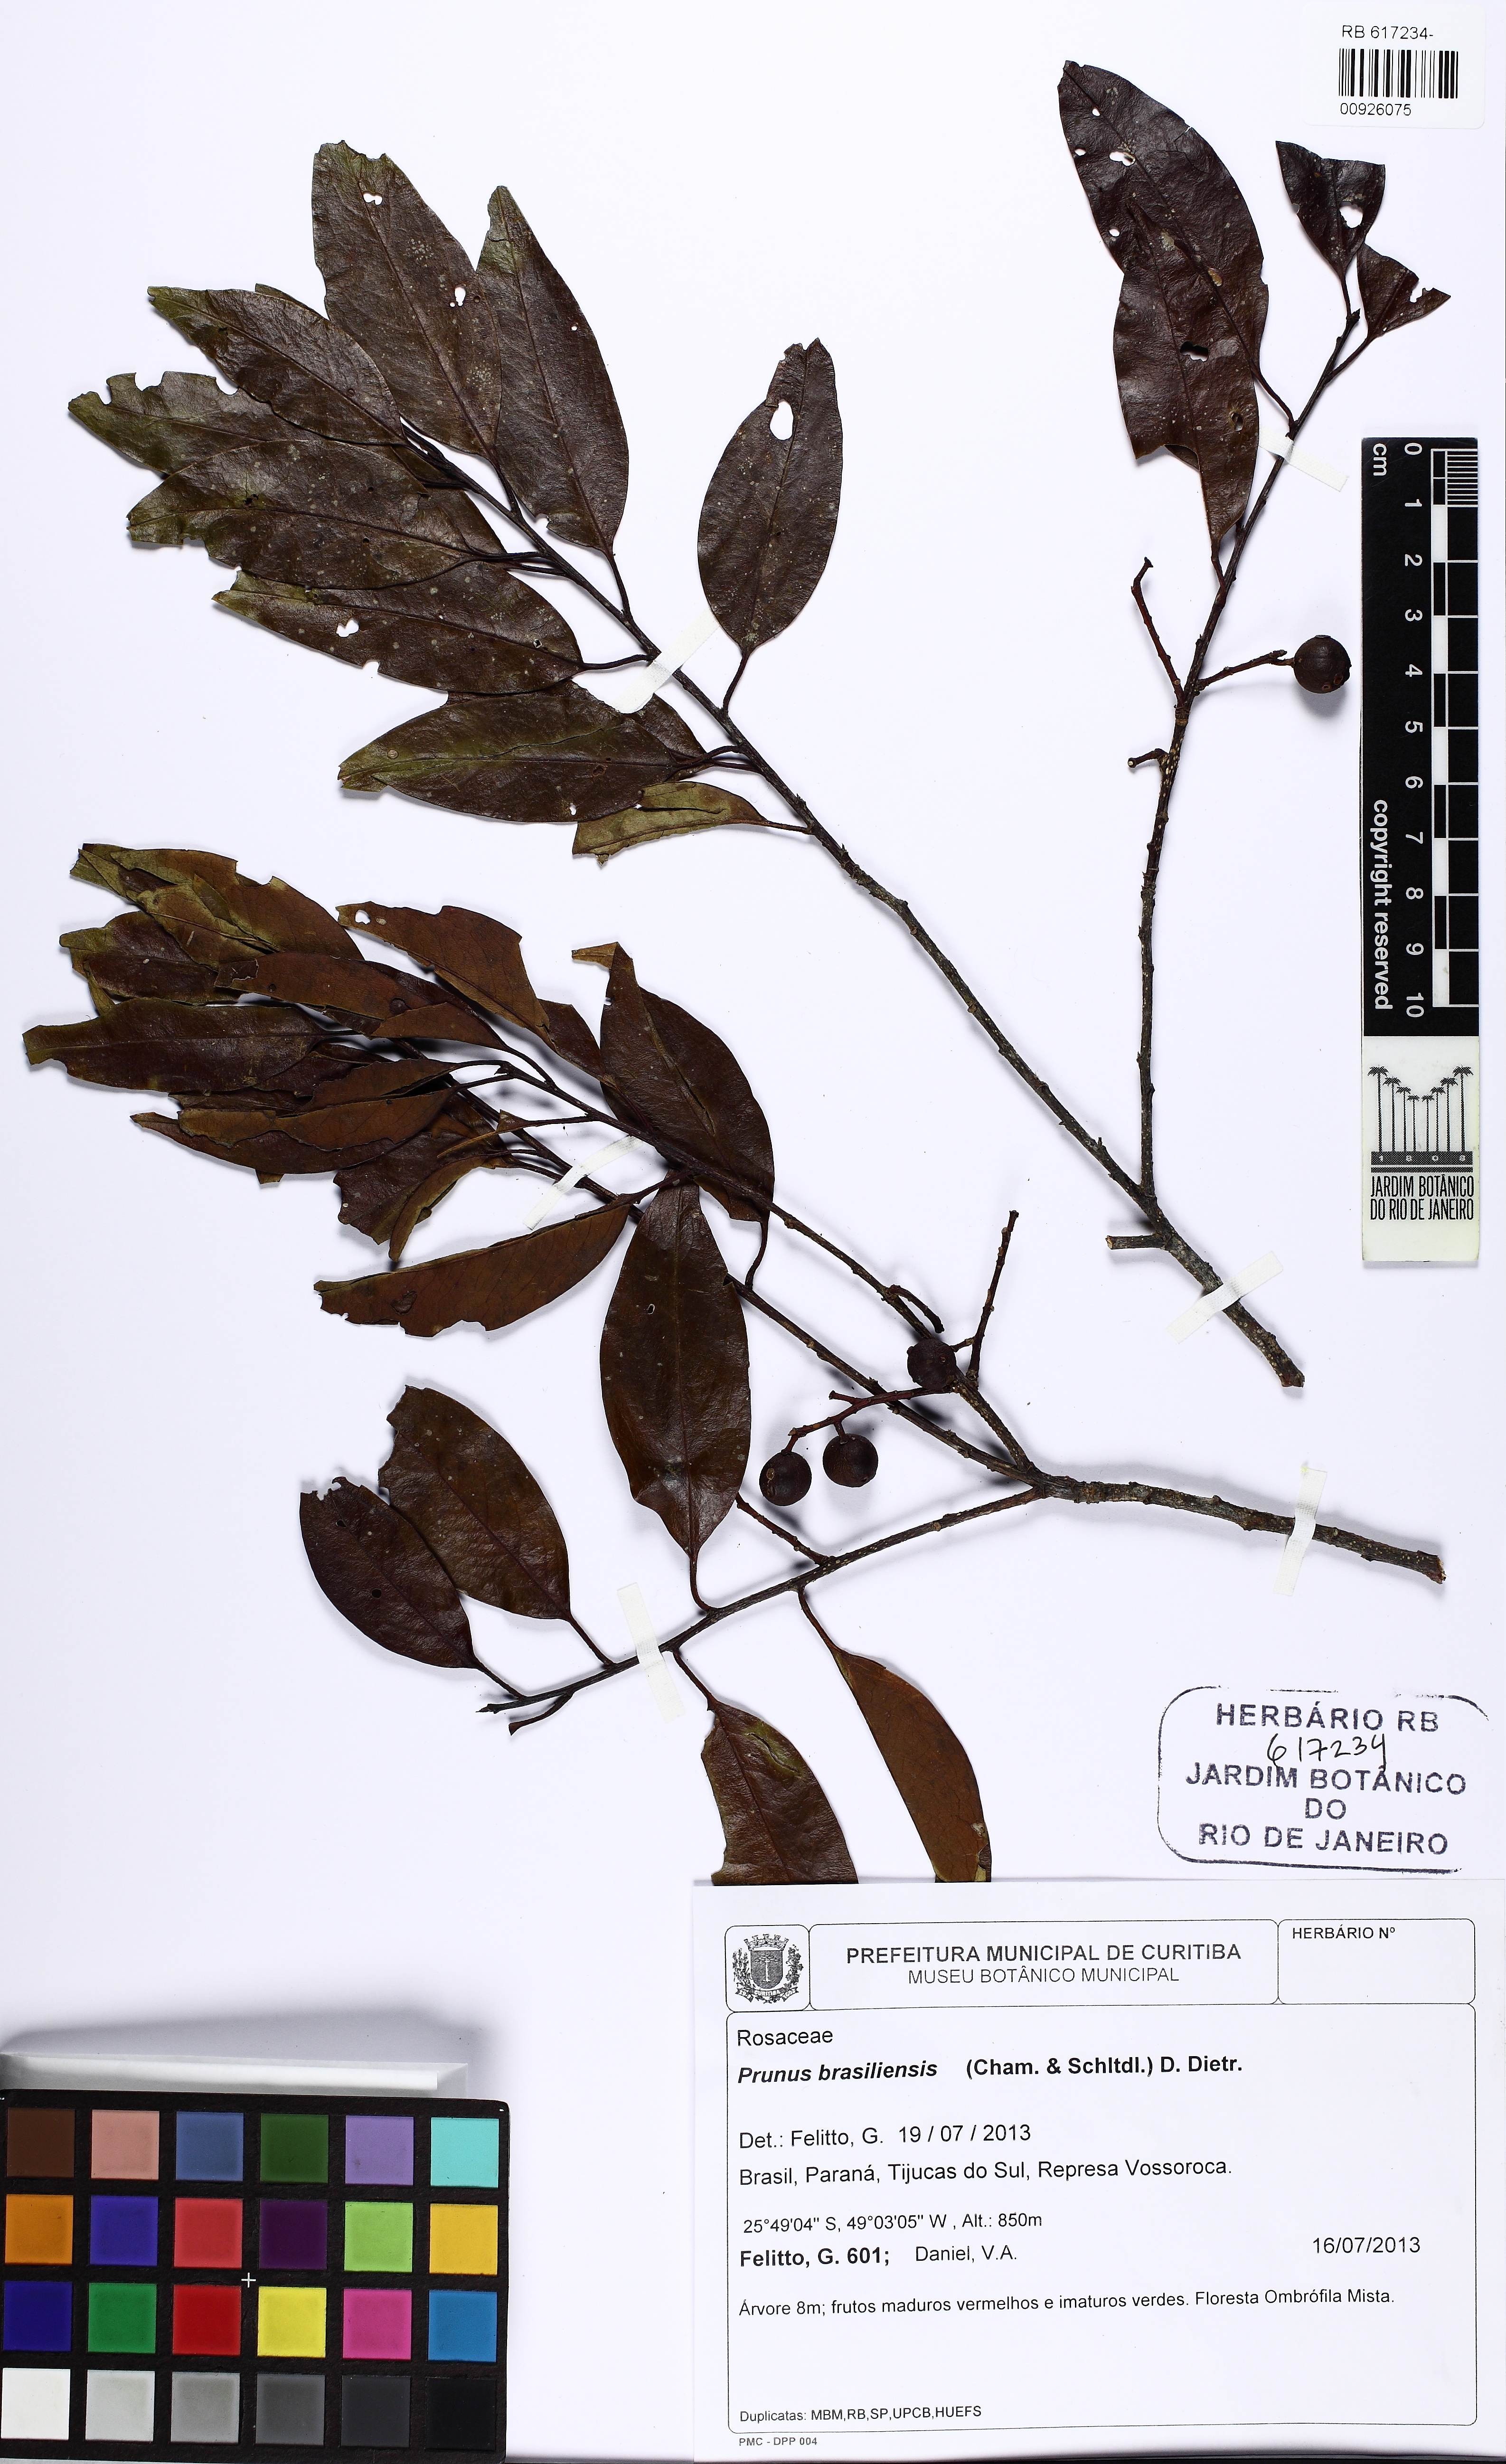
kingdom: Plantae
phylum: Tracheophyta
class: Magnoliopsida
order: Rosales
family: Rosaceae
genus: Prunus
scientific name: Prunus brasiliensis
